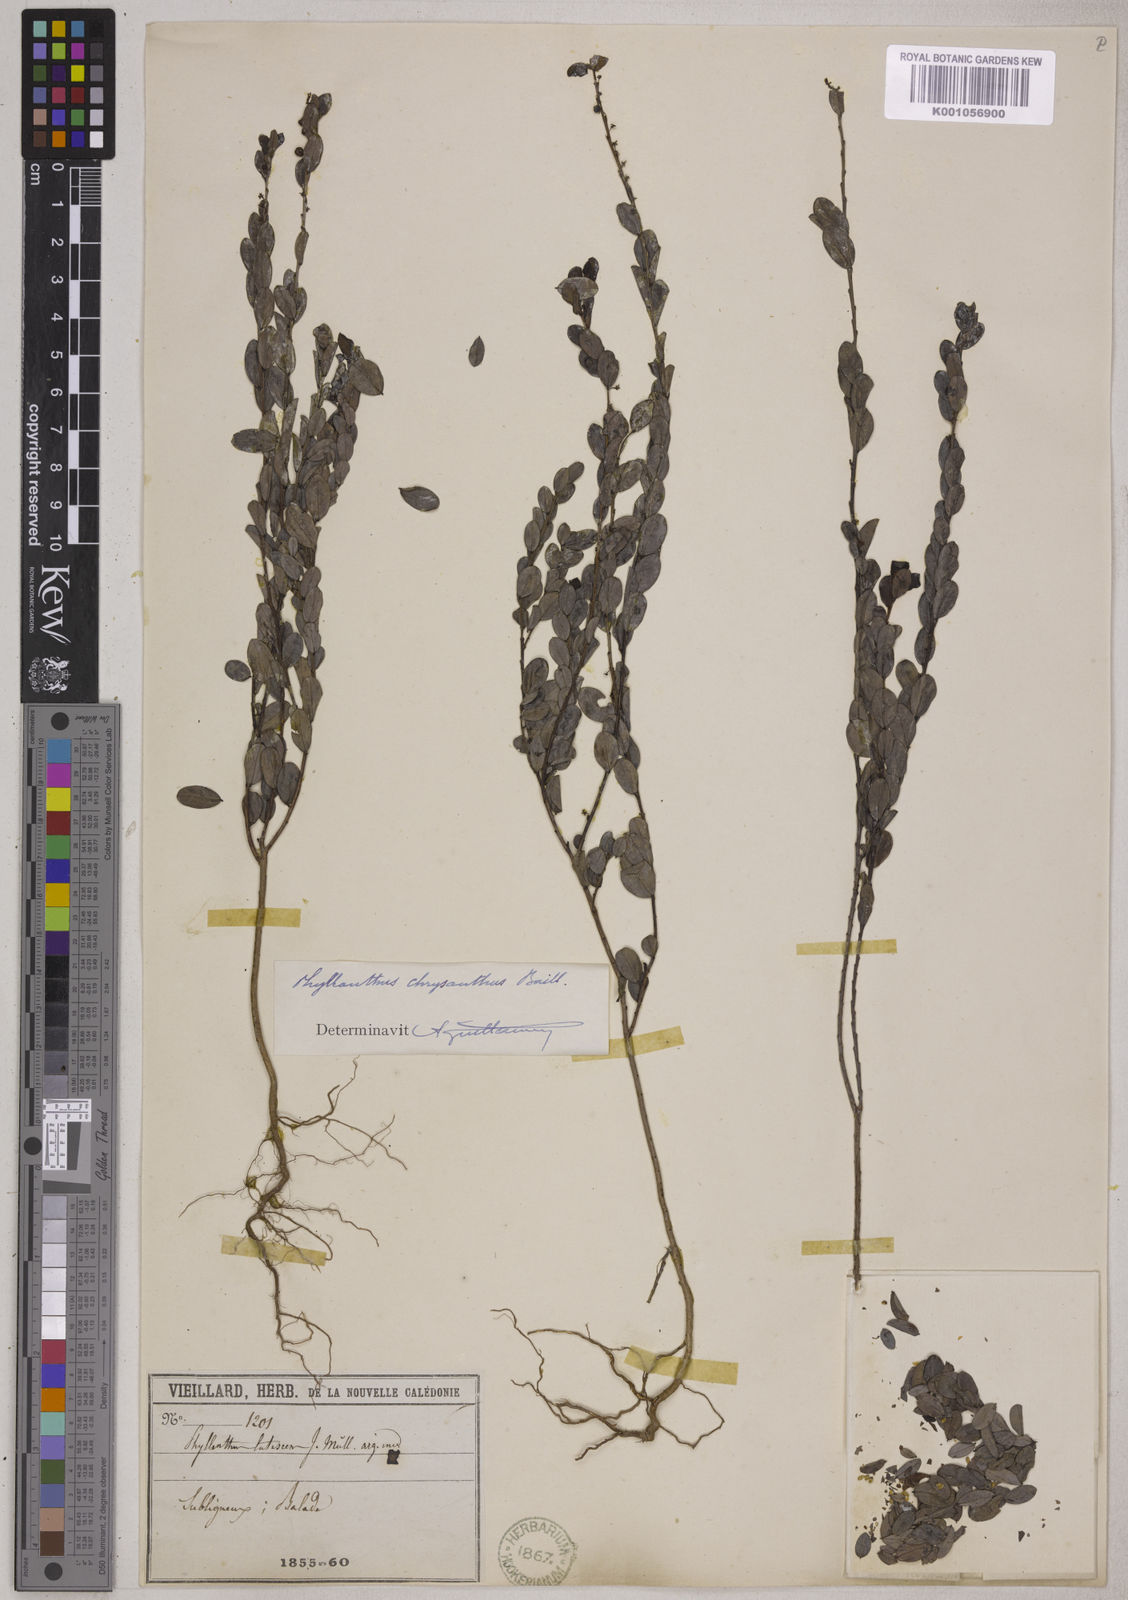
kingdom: Plantae
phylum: Tracheophyta
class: Magnoliopsida
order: Malpighiales
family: Phyllanthaceae
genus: Phyllanthus
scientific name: Phyllanthus chrysanthus
